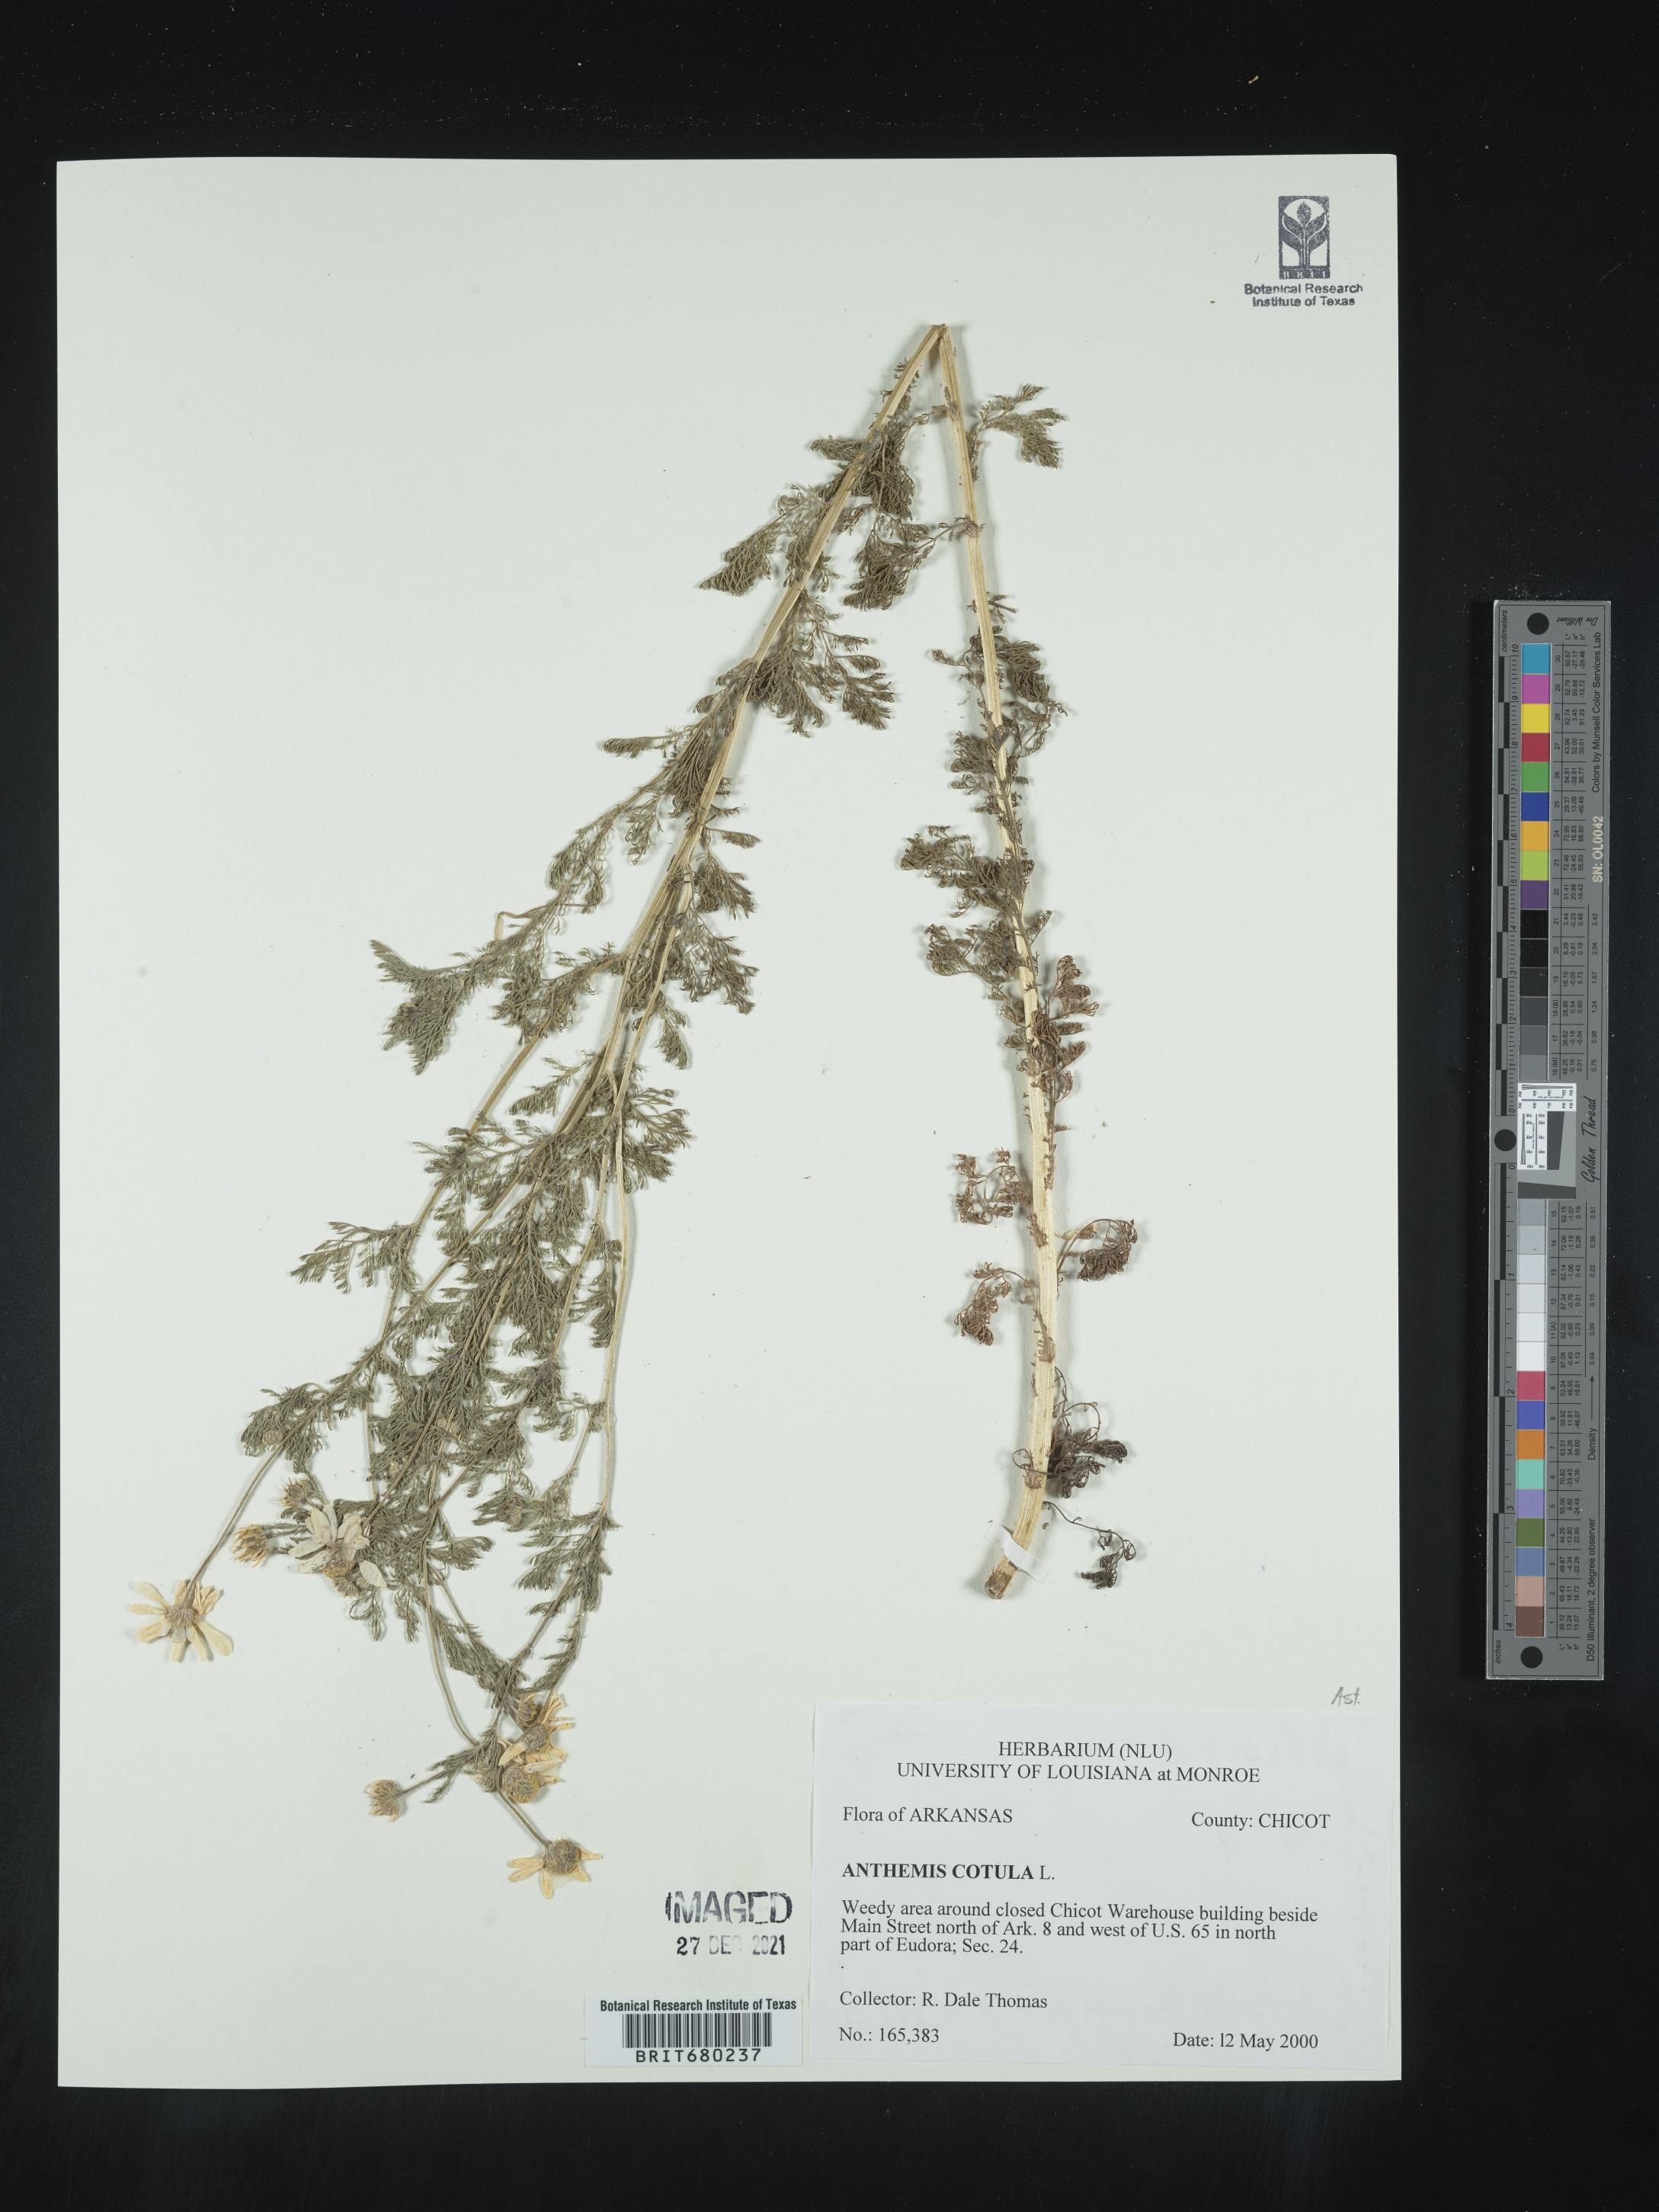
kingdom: Plantae
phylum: Tracheophyta
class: Magnoliopsida
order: Asterales
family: Asteraceae
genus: Anthemis
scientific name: Anthemis cotula
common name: Stinking chamomile
